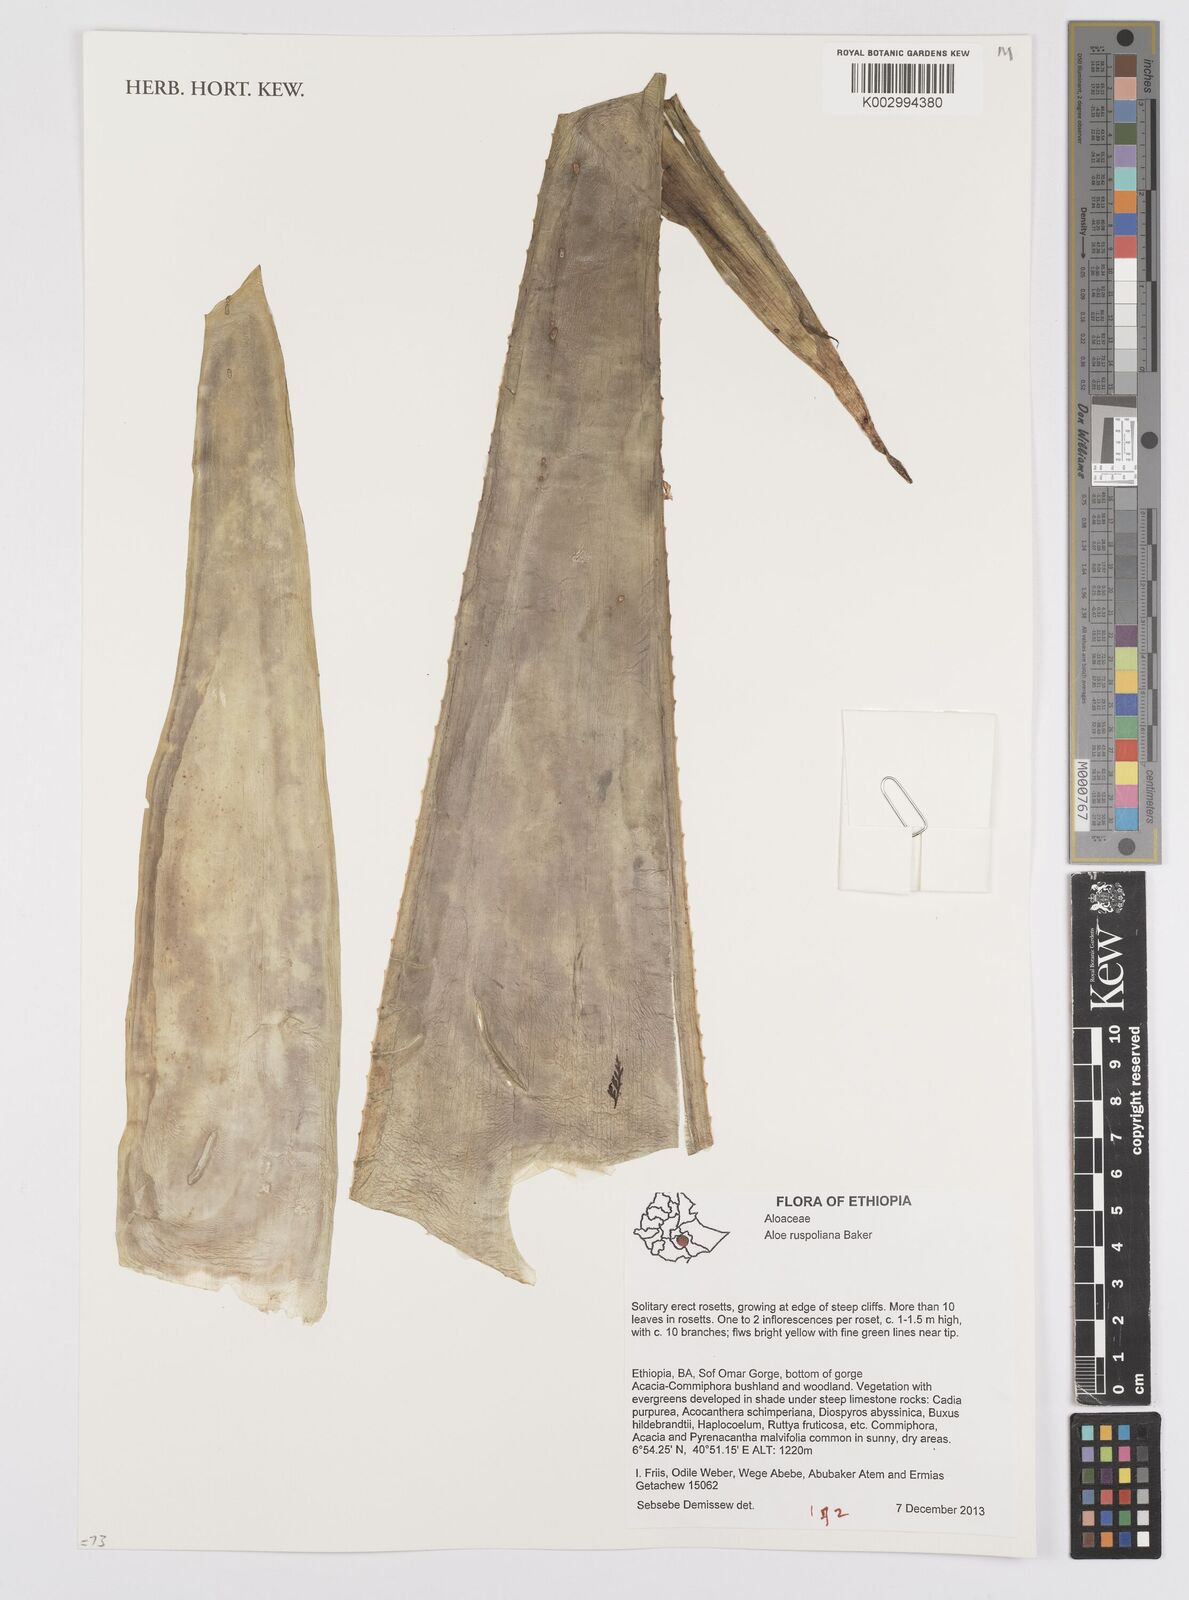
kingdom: Plantae
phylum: Tracheophyta
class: Liliopsida
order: Asparagales
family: Asphodelaceae
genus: Aloe
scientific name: Aloe ruspoliana
